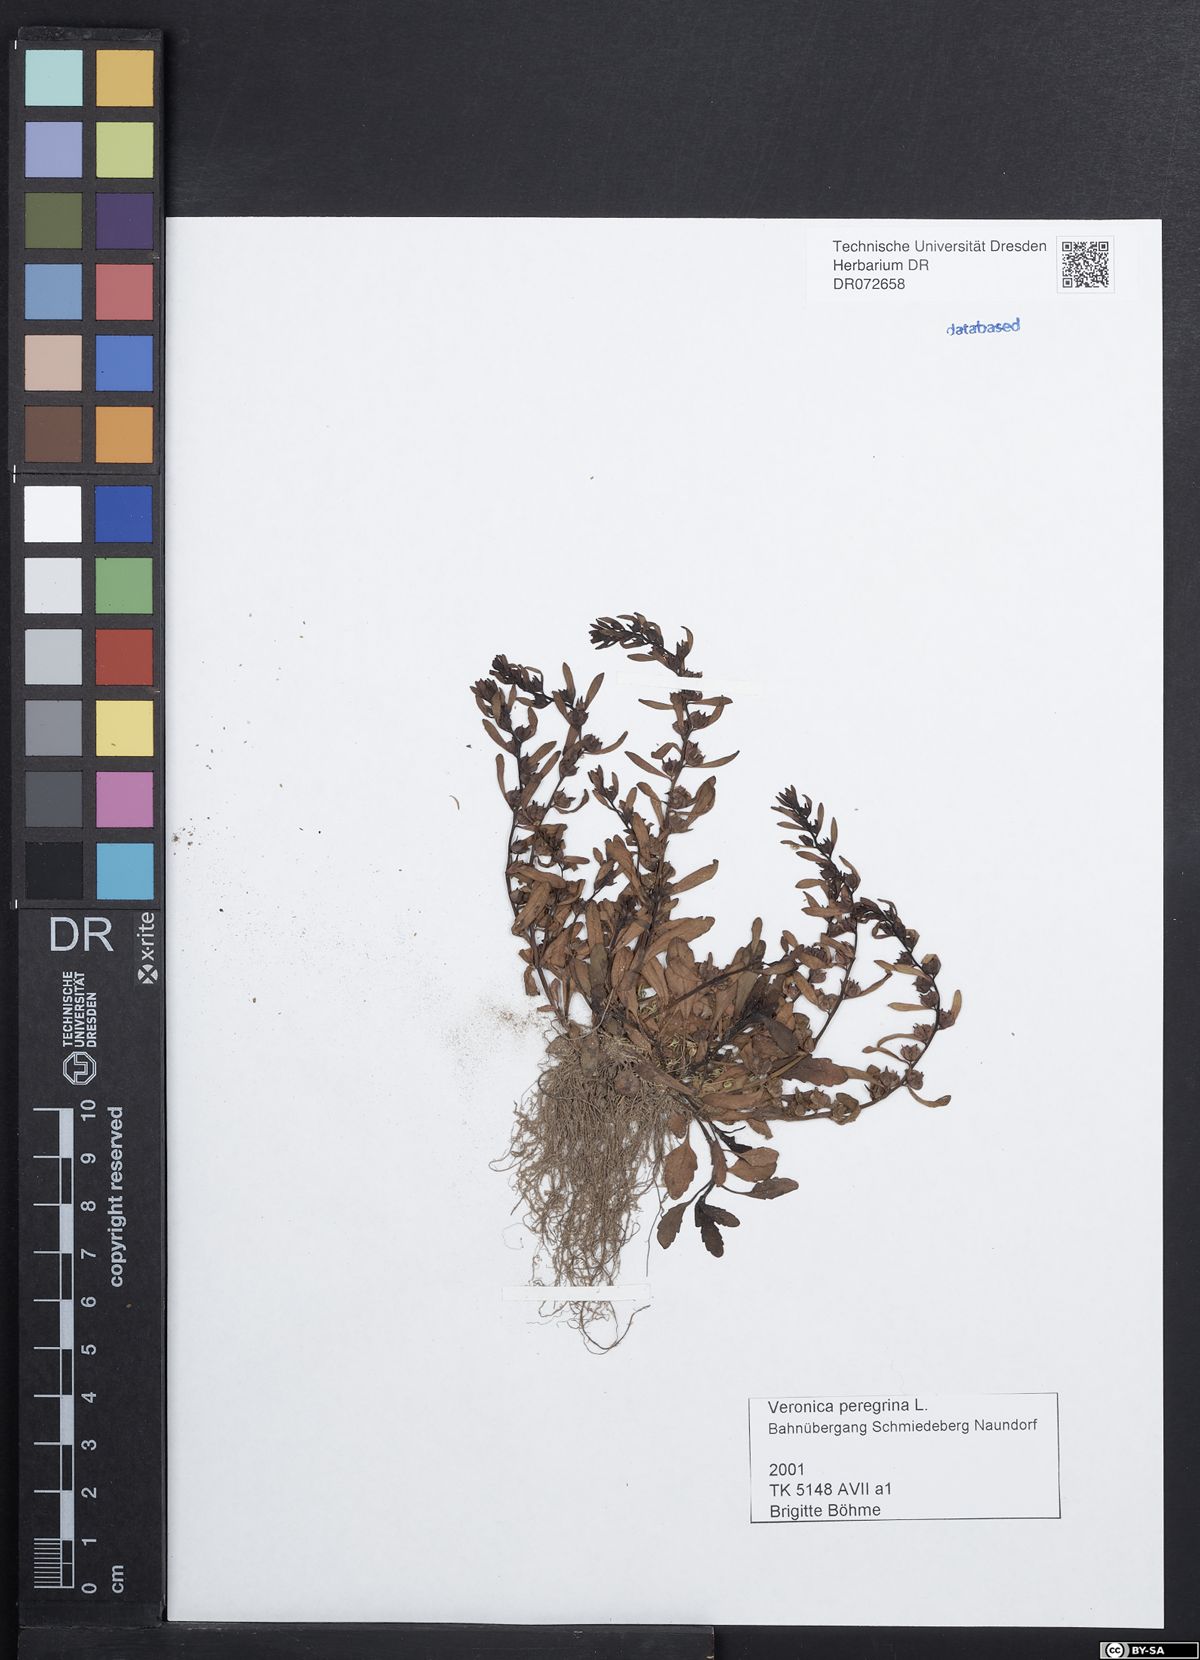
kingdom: Plantae
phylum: Tracheophyta
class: Magnoliopsida
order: Lamiales
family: Plantaginaceae
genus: Veronica
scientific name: Veronica peregrina
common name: Neckweed
